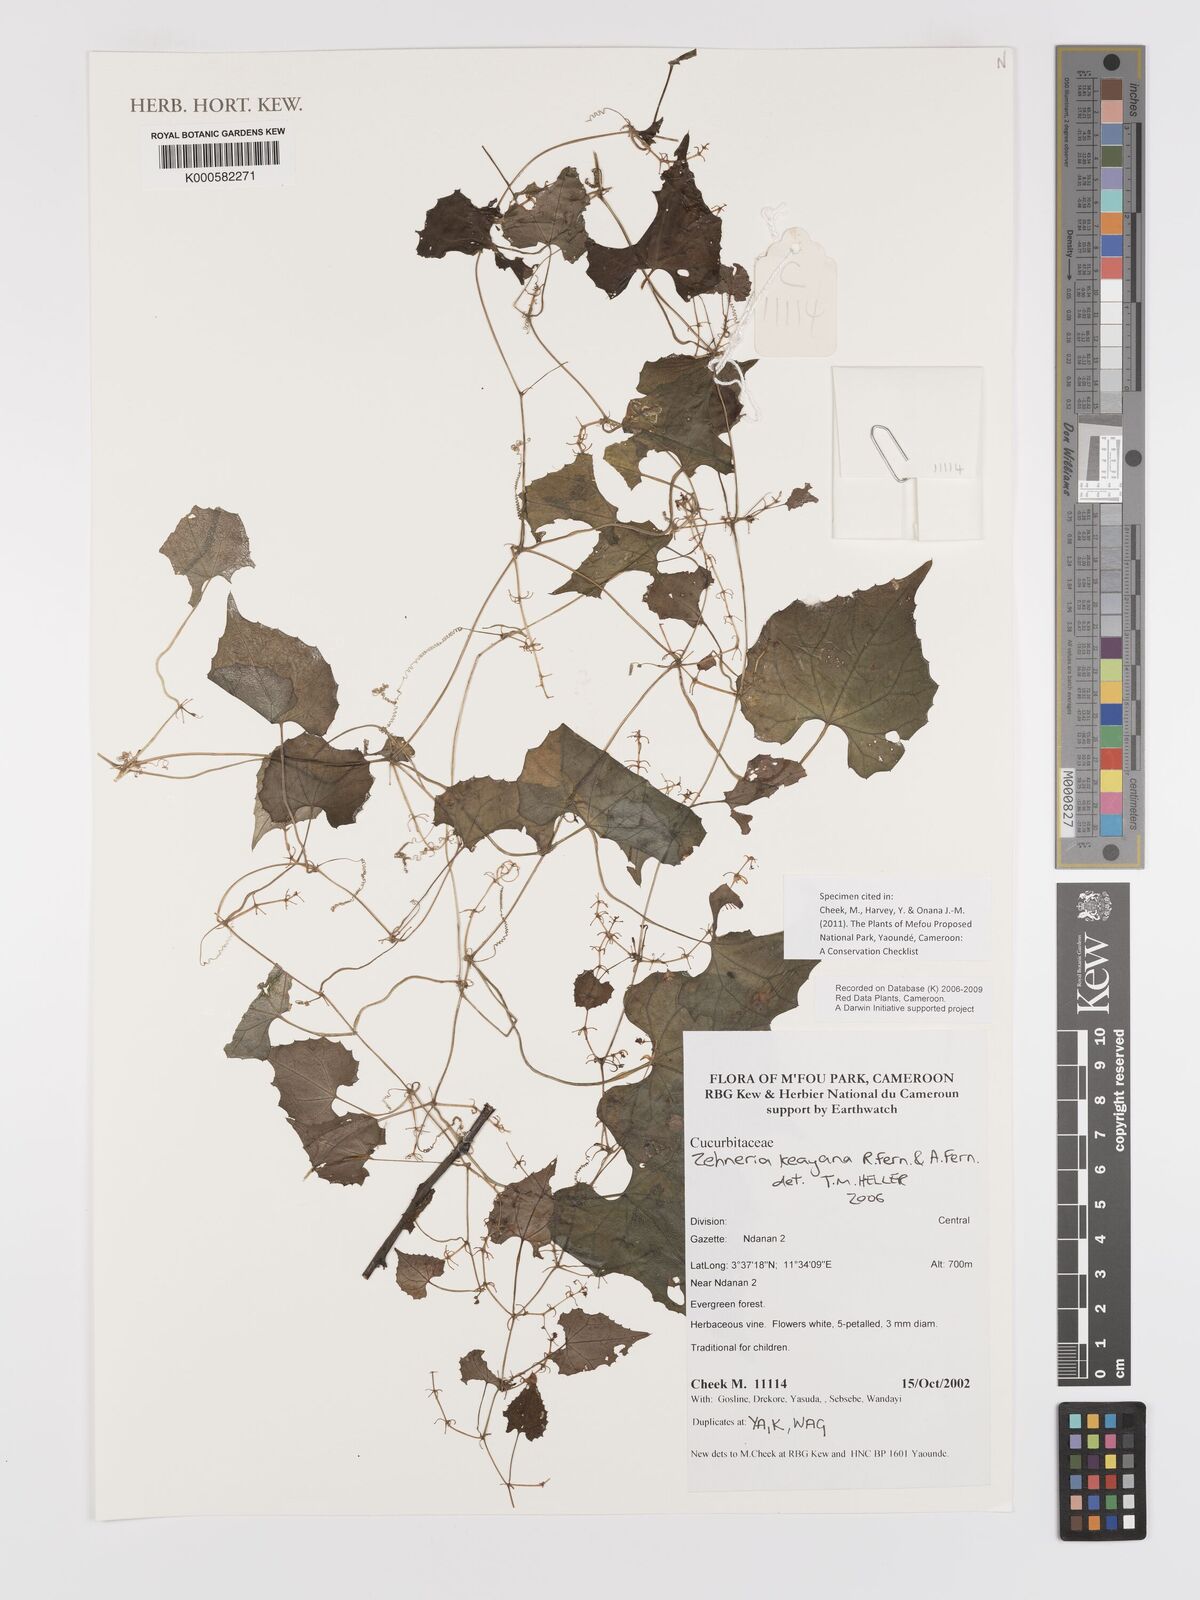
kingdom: Plantae
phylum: Tracheophyta
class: Magnoliopsida
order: Cucurbitales
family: Cucurbitaceae
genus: Zehneria
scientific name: Zehneria keayana
